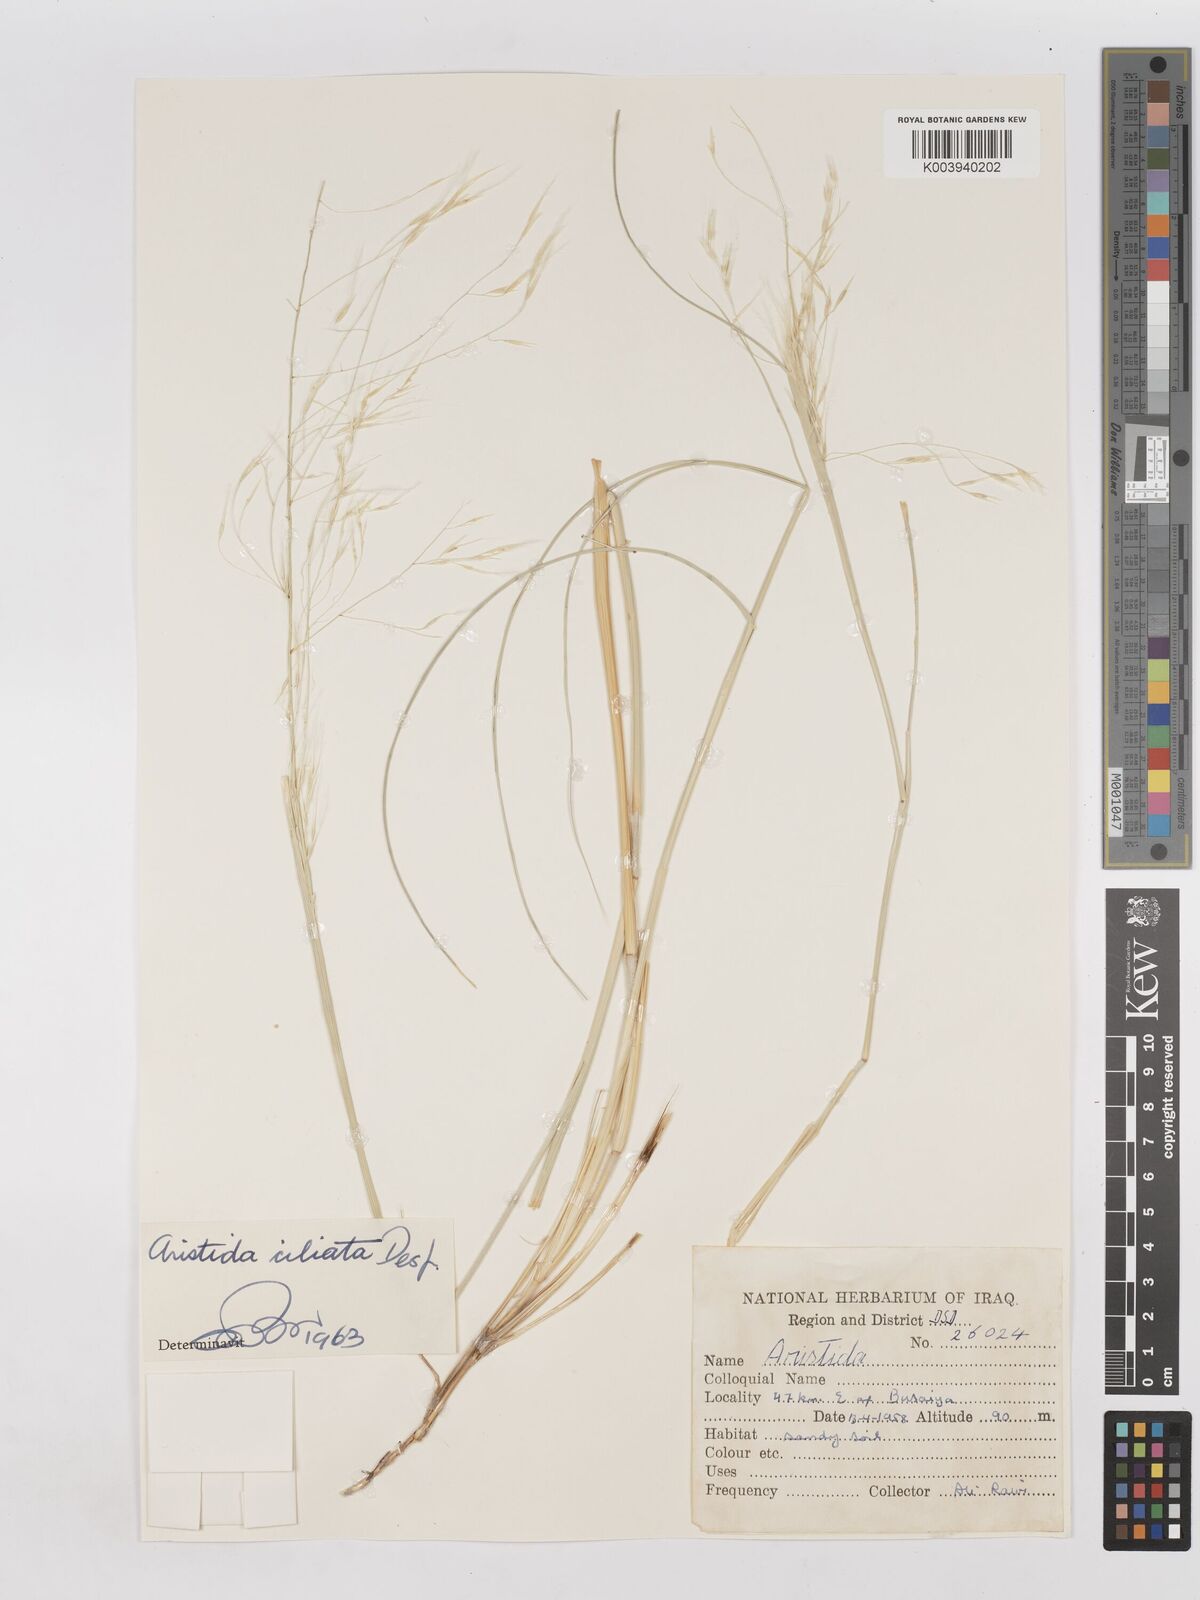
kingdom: Plantae
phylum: Tracheophyta
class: Liliopsida
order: Poales
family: Poaceae
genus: Stipagrostis
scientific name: Stipagrostis ciliata
